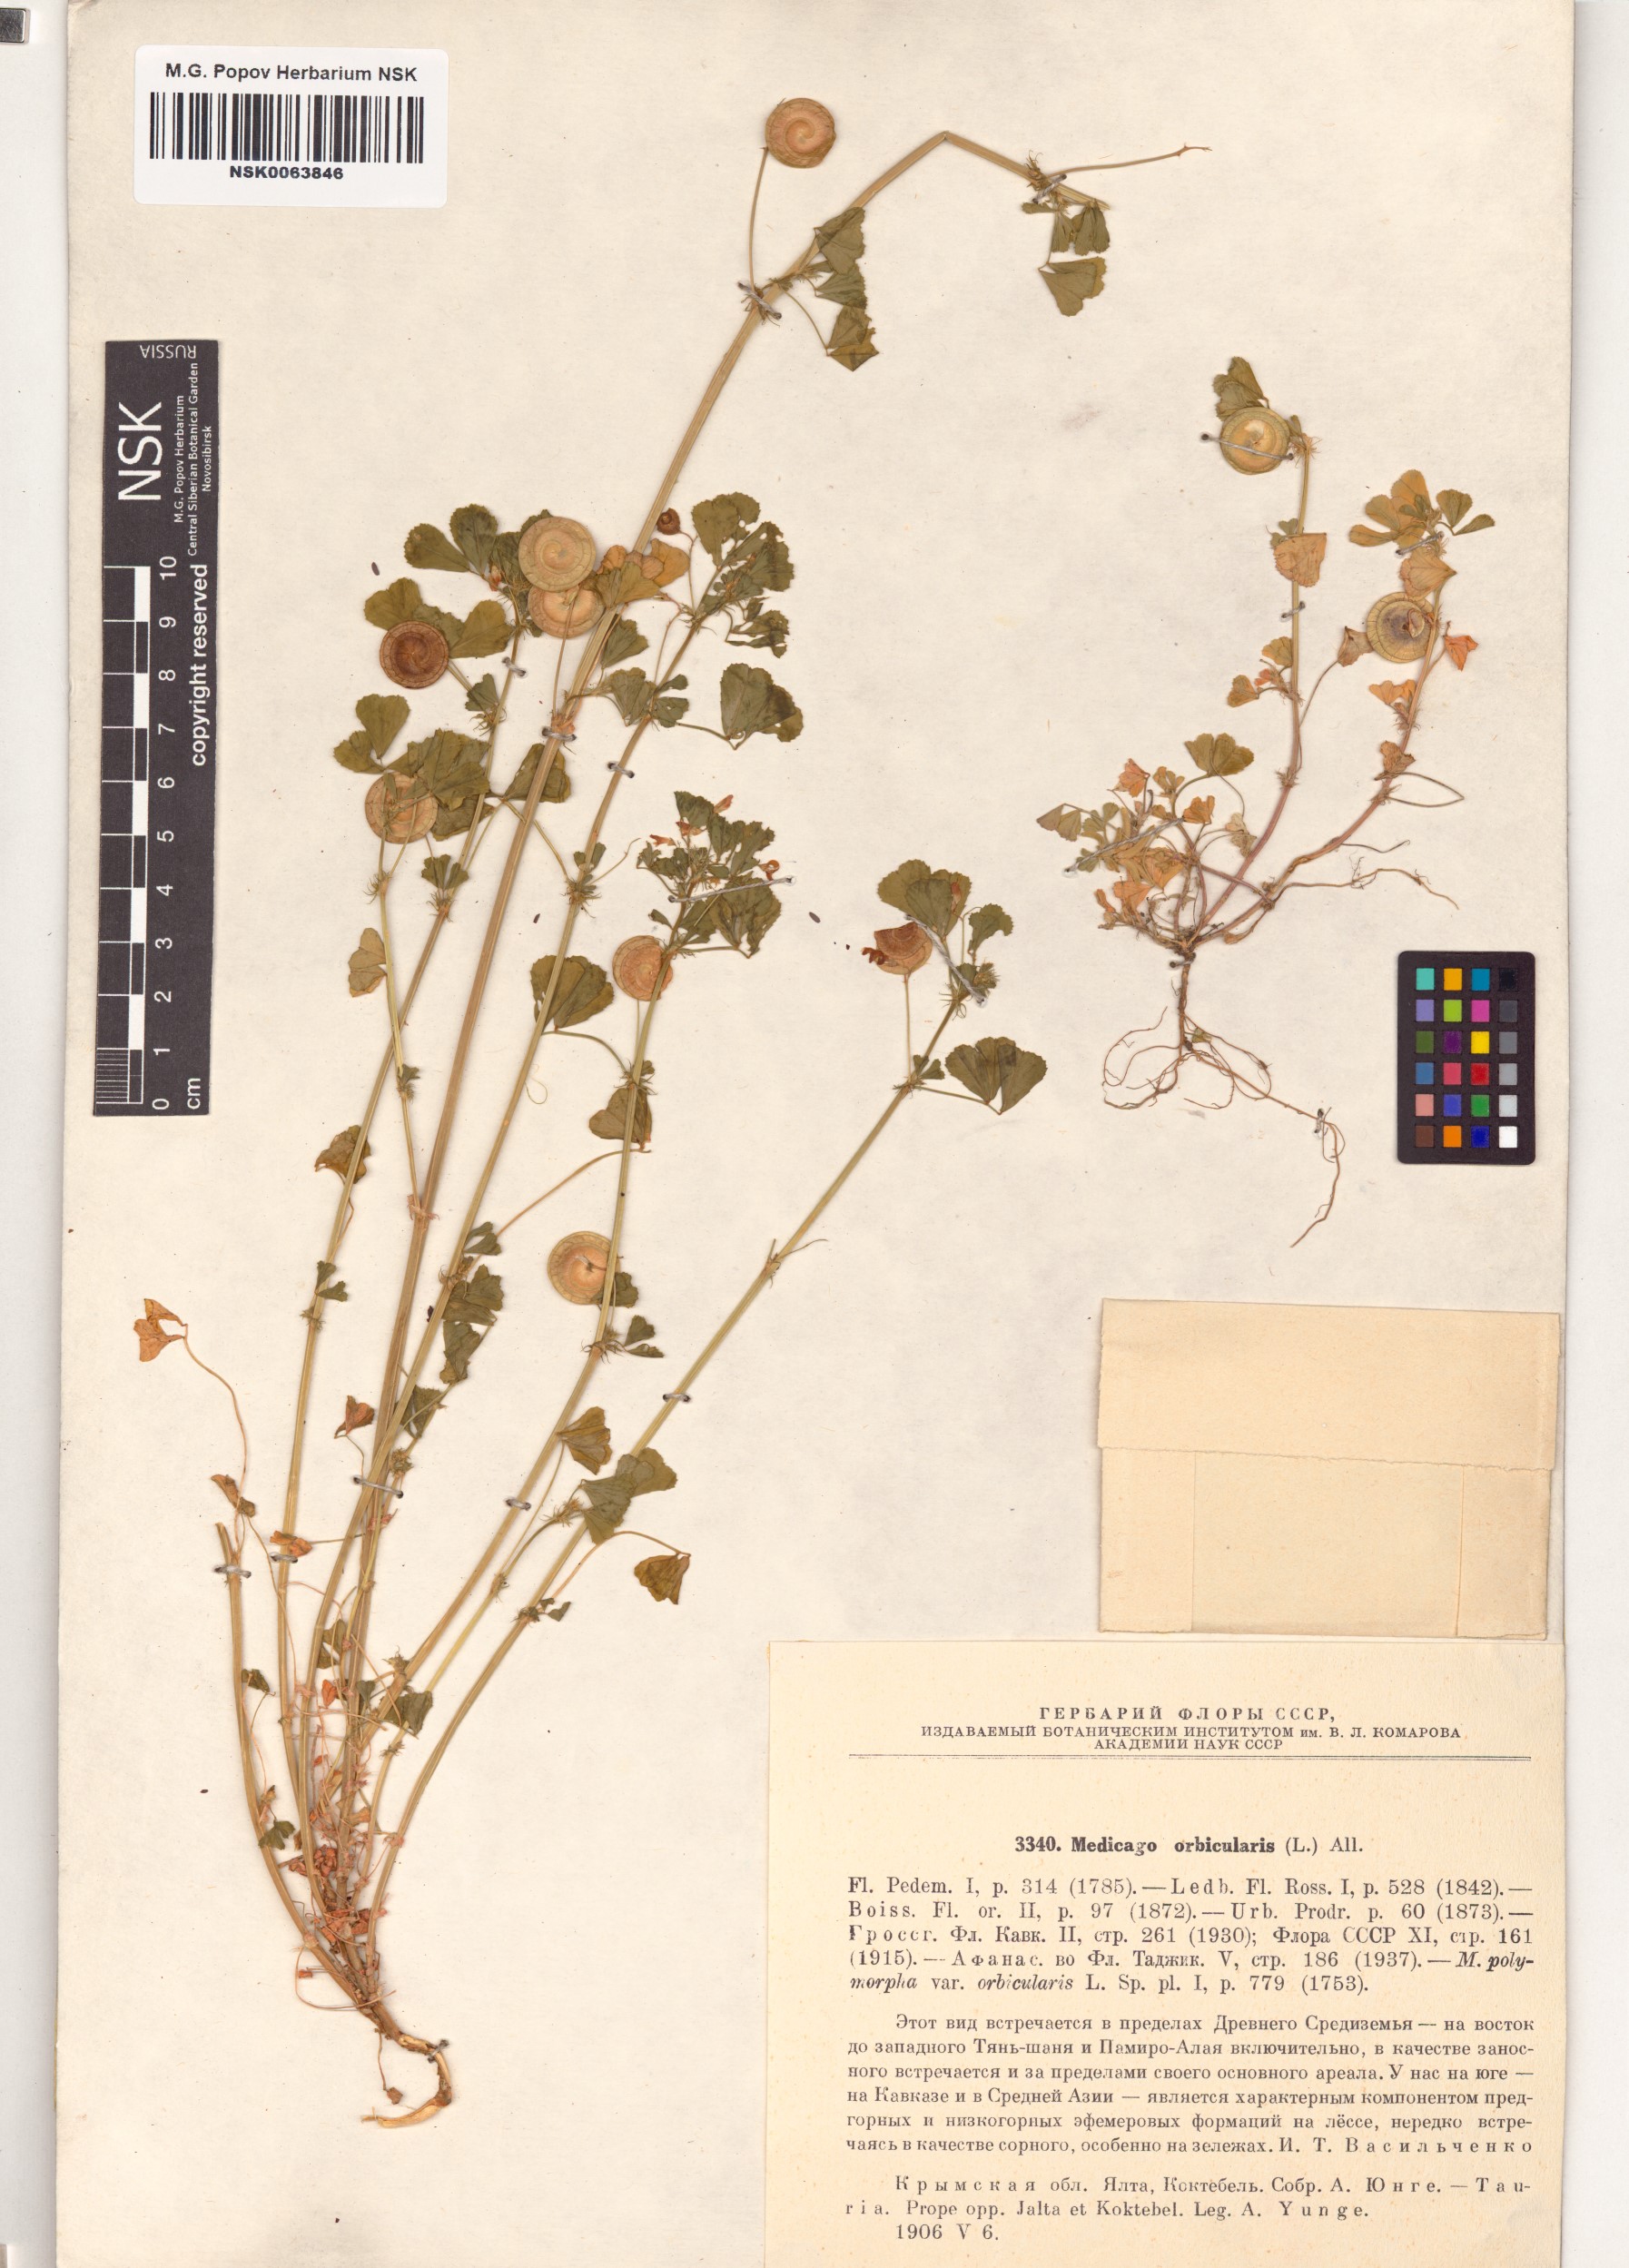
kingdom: Plantae
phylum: Tracheophyta
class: Magnoliopsida
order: Fabales
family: Fabaceae
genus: Medicago
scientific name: Medicago orbicularis
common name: Button medick
